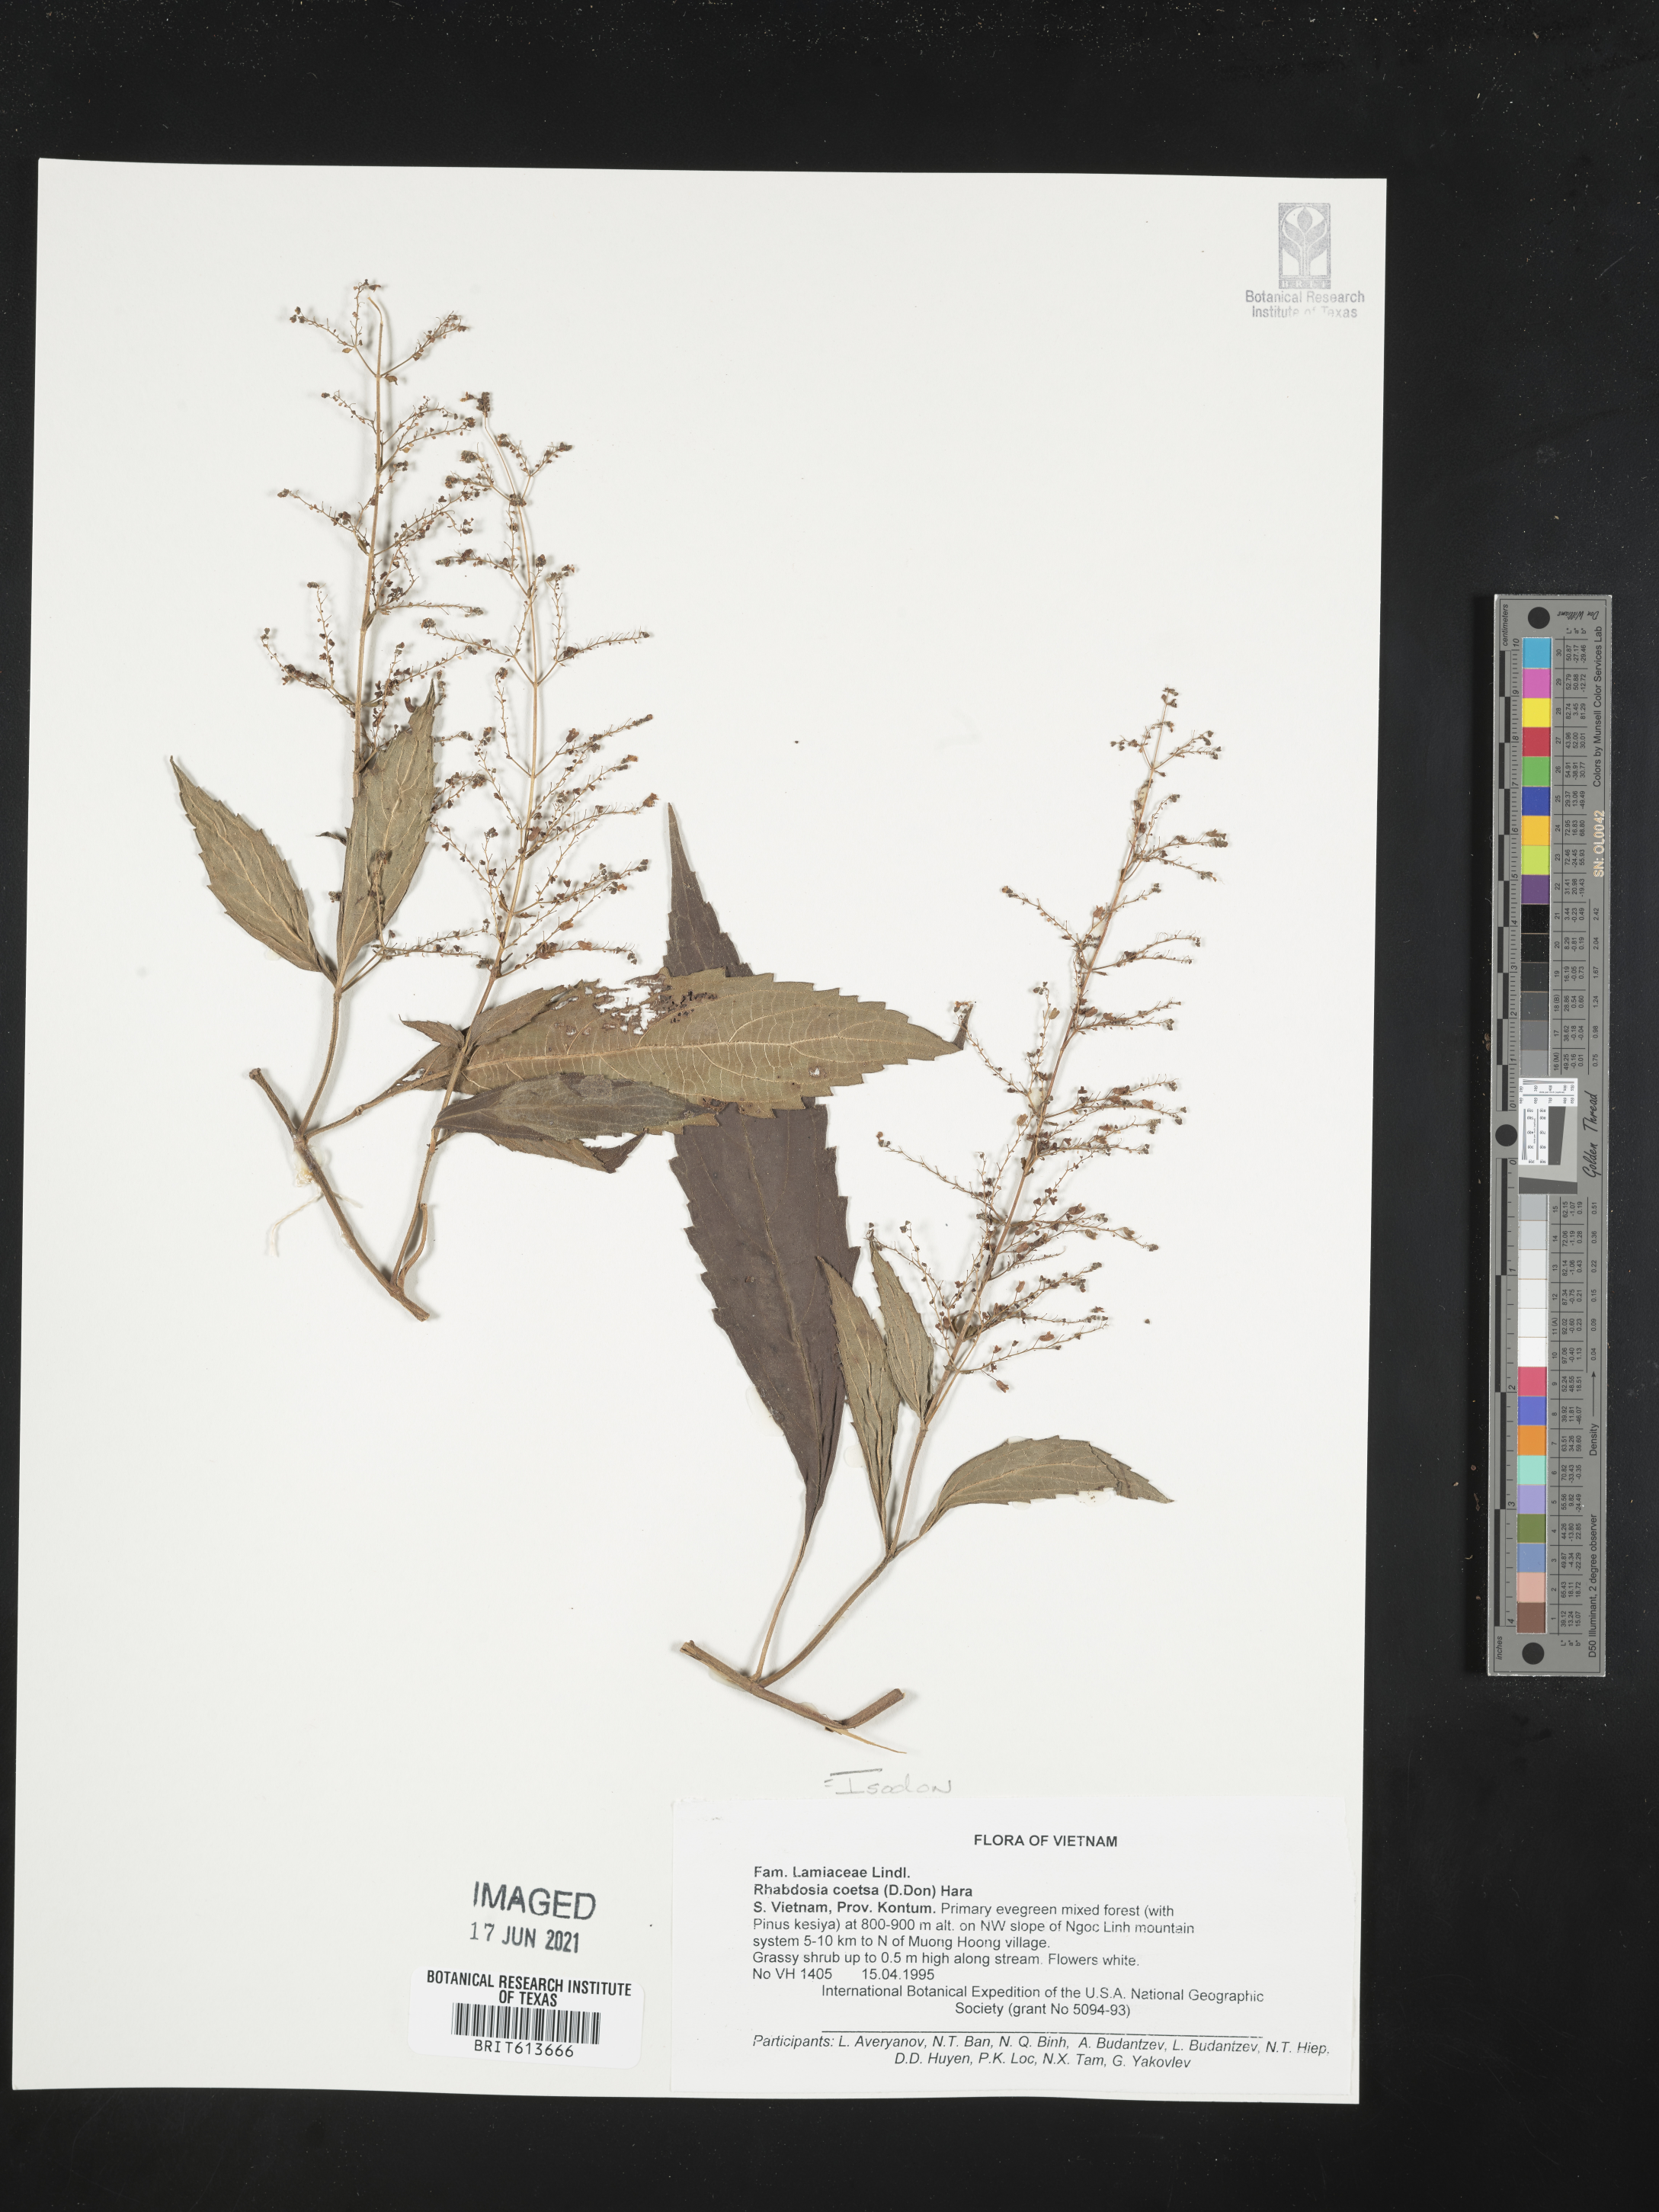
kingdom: Plantae
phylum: Tracheophyta
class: Magnoliopsida
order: Lamiales
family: Lamiaceae
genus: Isodon
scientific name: Isodon
